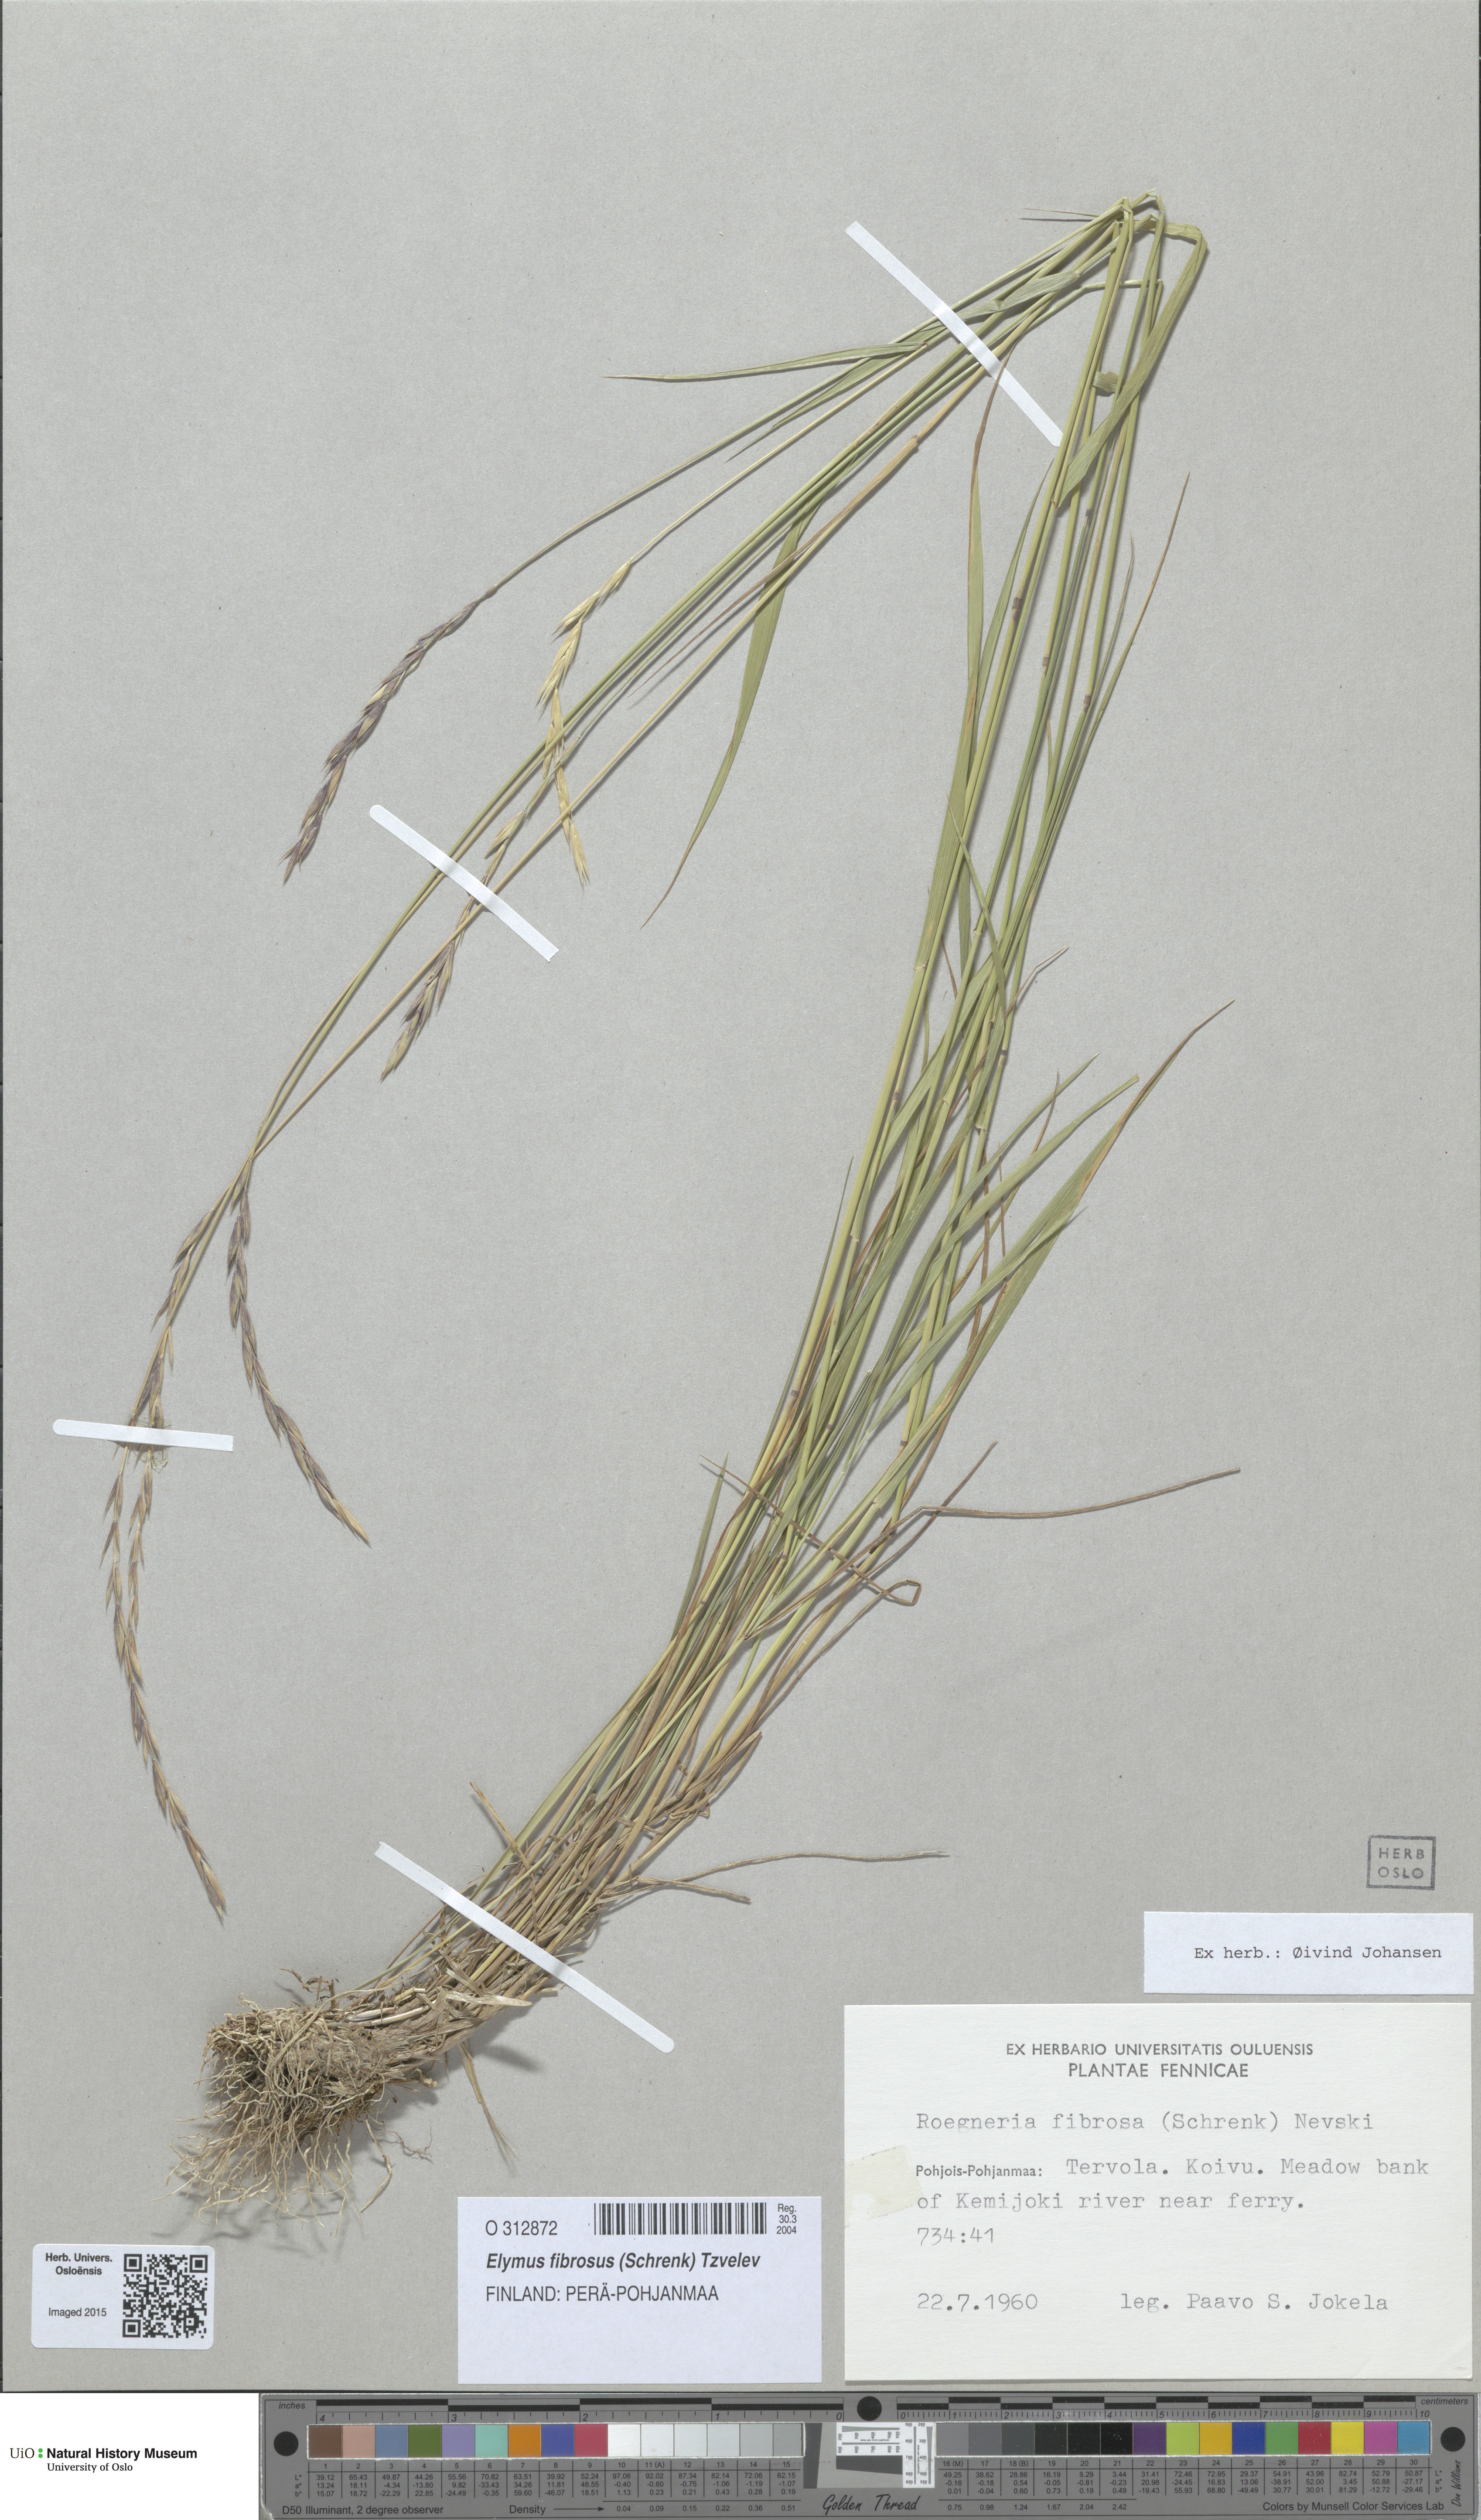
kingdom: Plantae
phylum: Tracheophyta
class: Liliopsida
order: Poales
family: Poaceae
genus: Elymus
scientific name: Elymus fibrosus
